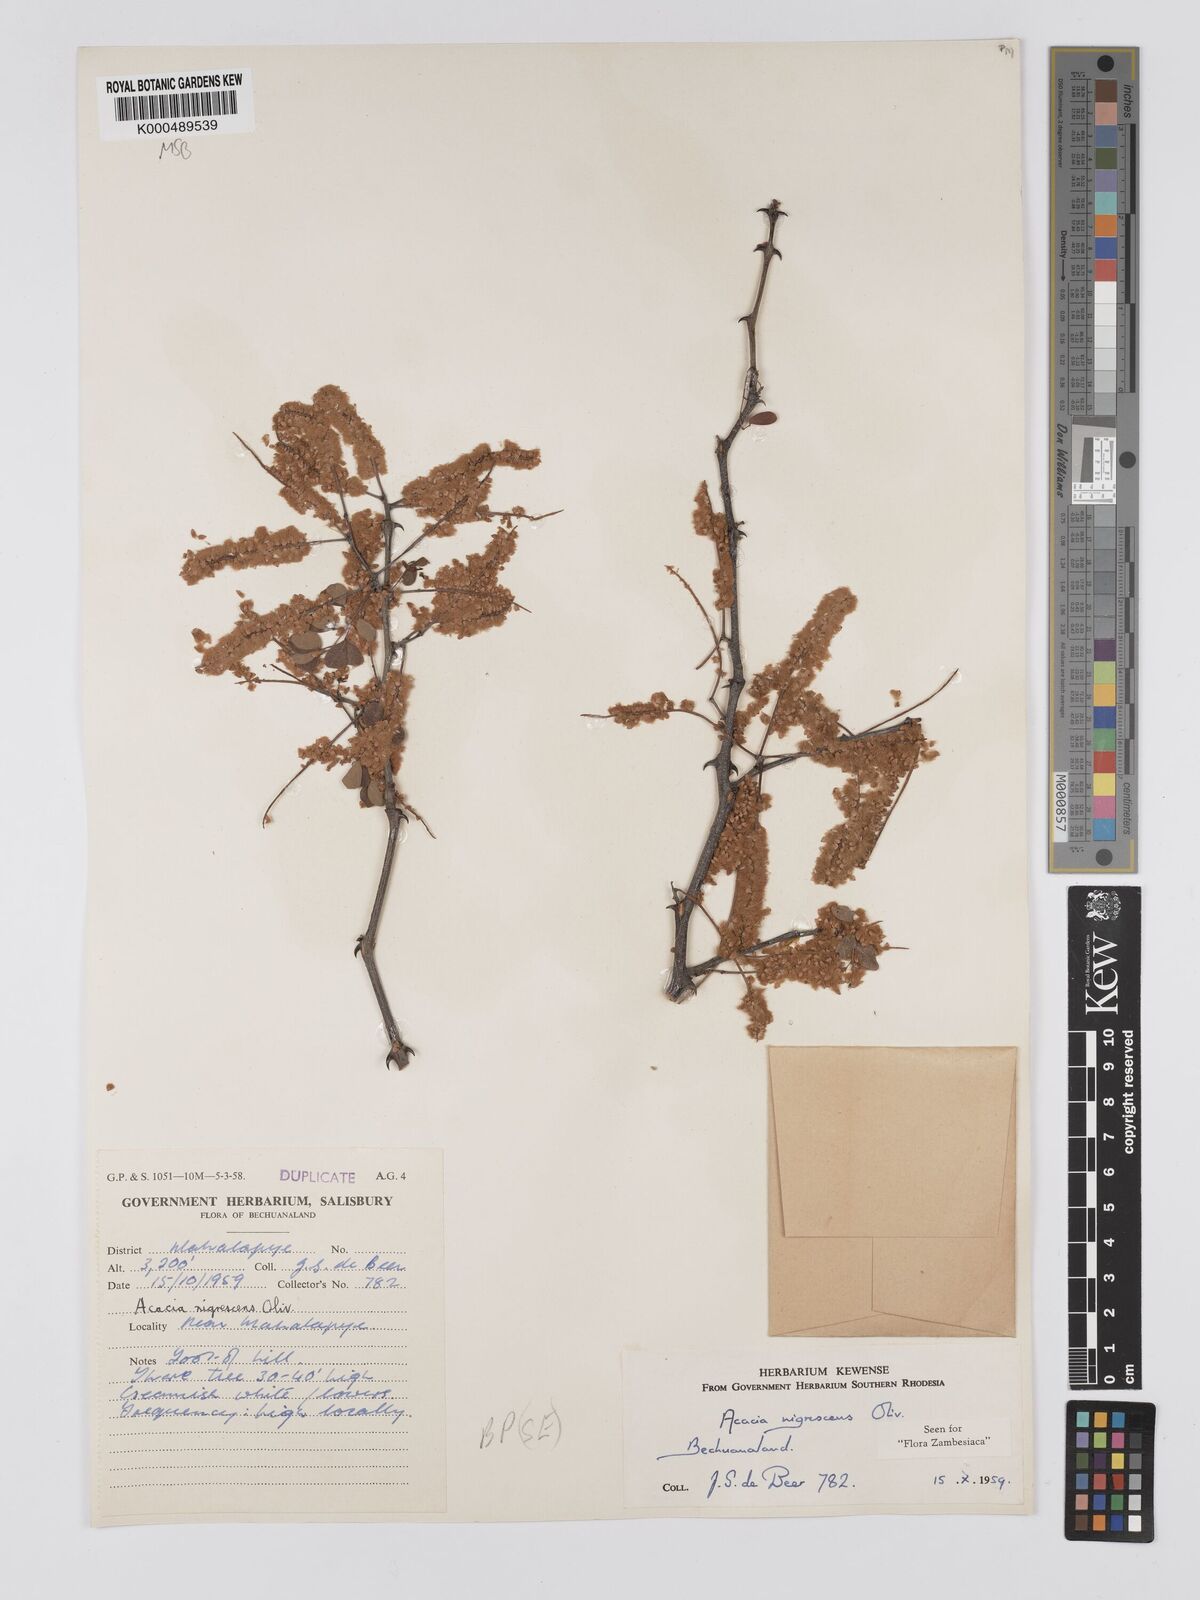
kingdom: Plantae
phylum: Tracheophyta
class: Magnoliopsida
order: Fabales
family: Fabaceae
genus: Senegalia
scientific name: Senegalia nigrescens
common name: Knobthorn
